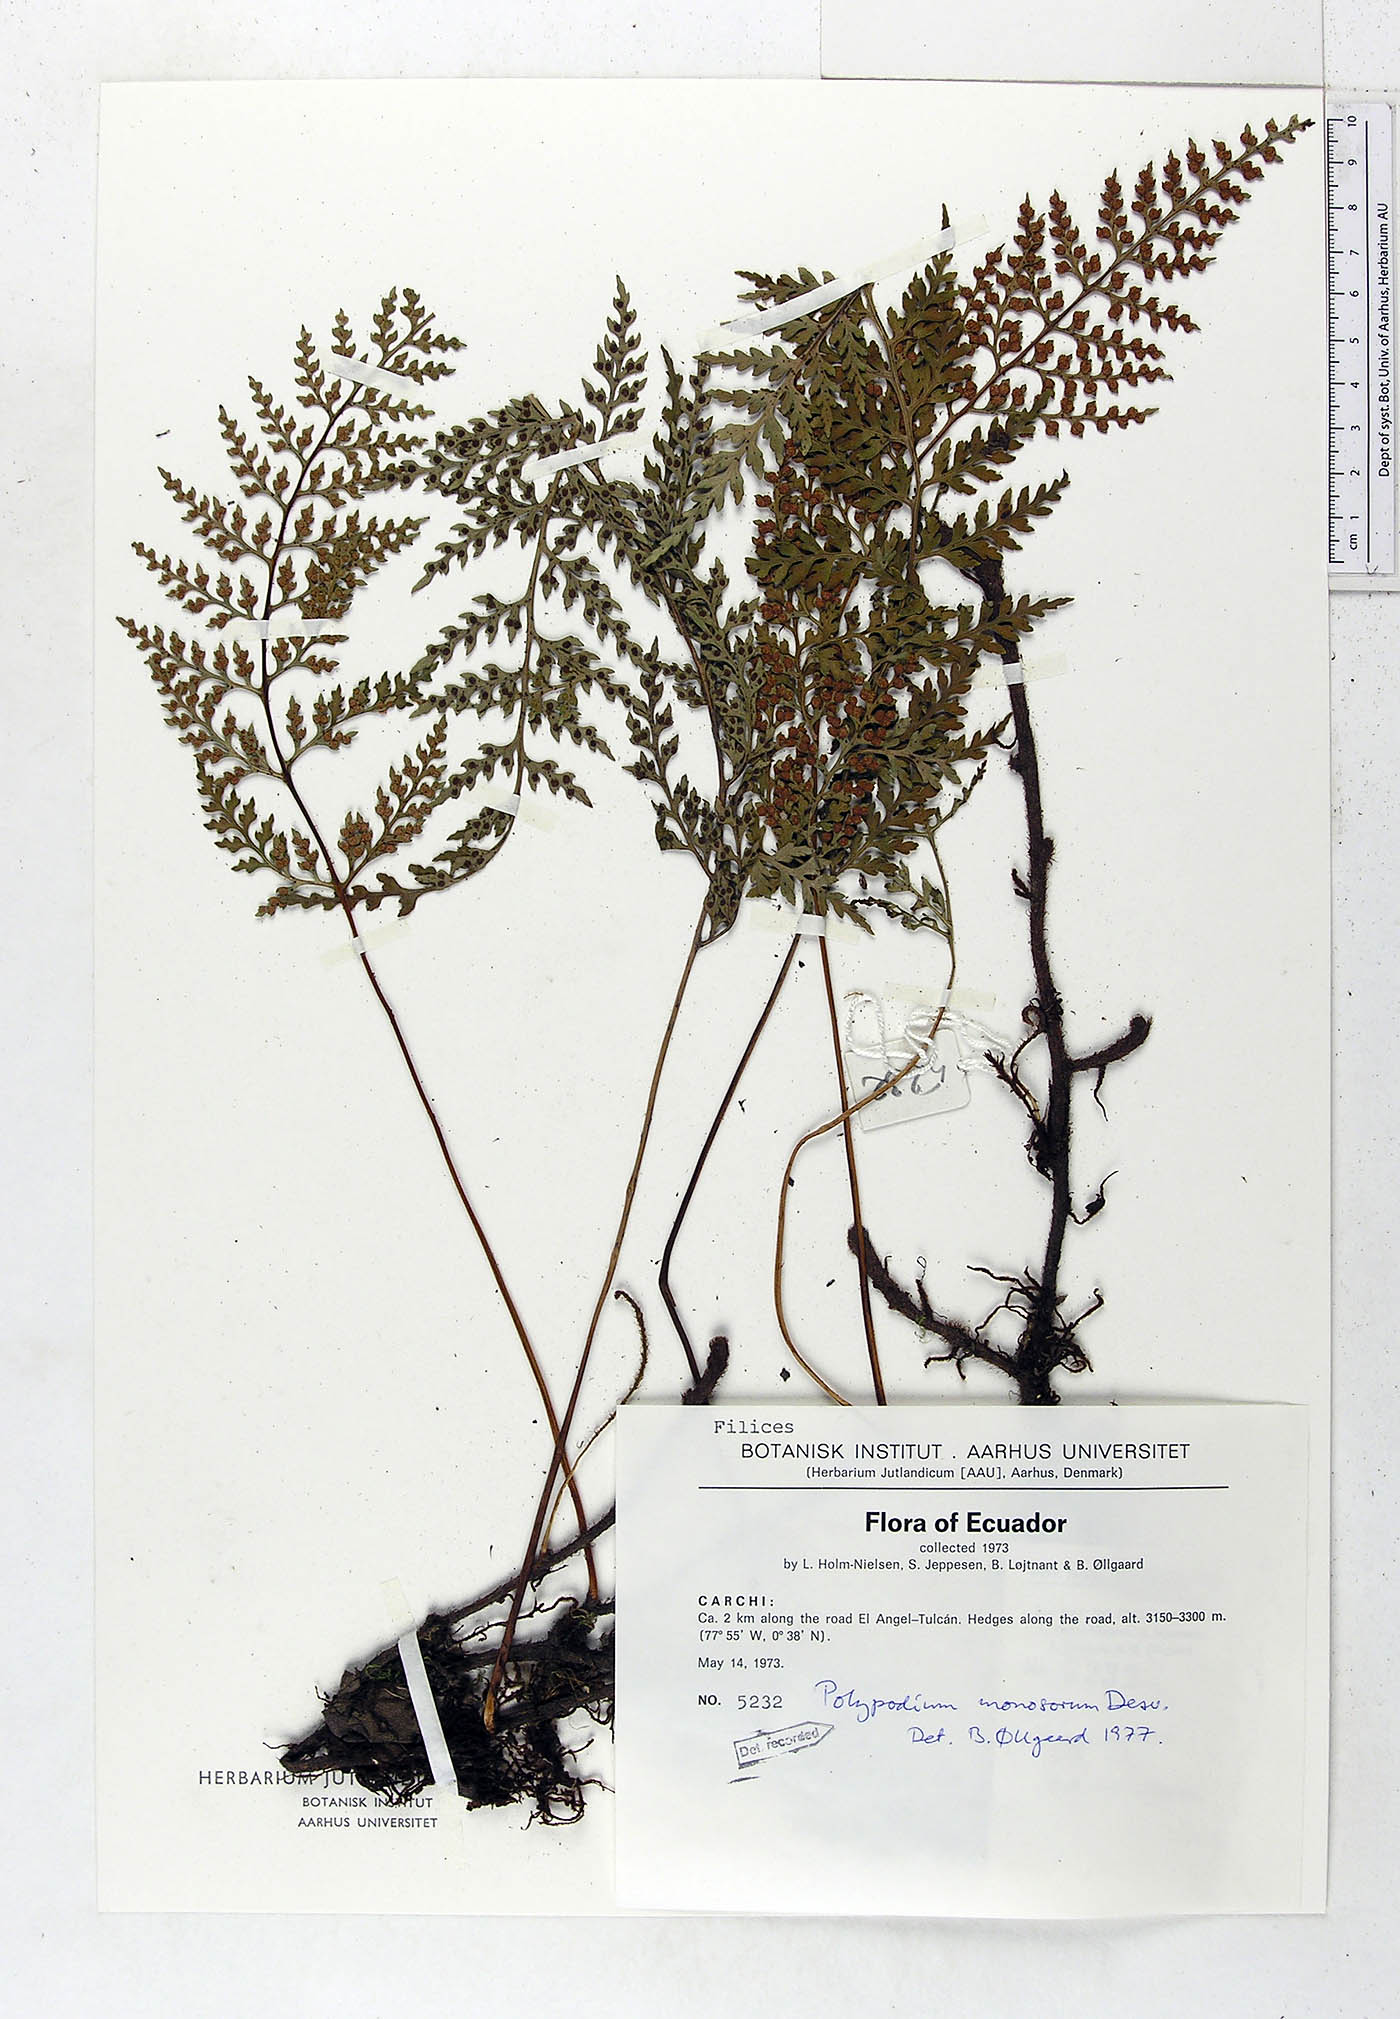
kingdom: Plantae
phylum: Tracheophyta
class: Polypodiopsida
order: Polypodiales
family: Polypodiaceae
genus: Pleopeltis
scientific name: Pleopeltis monosora
